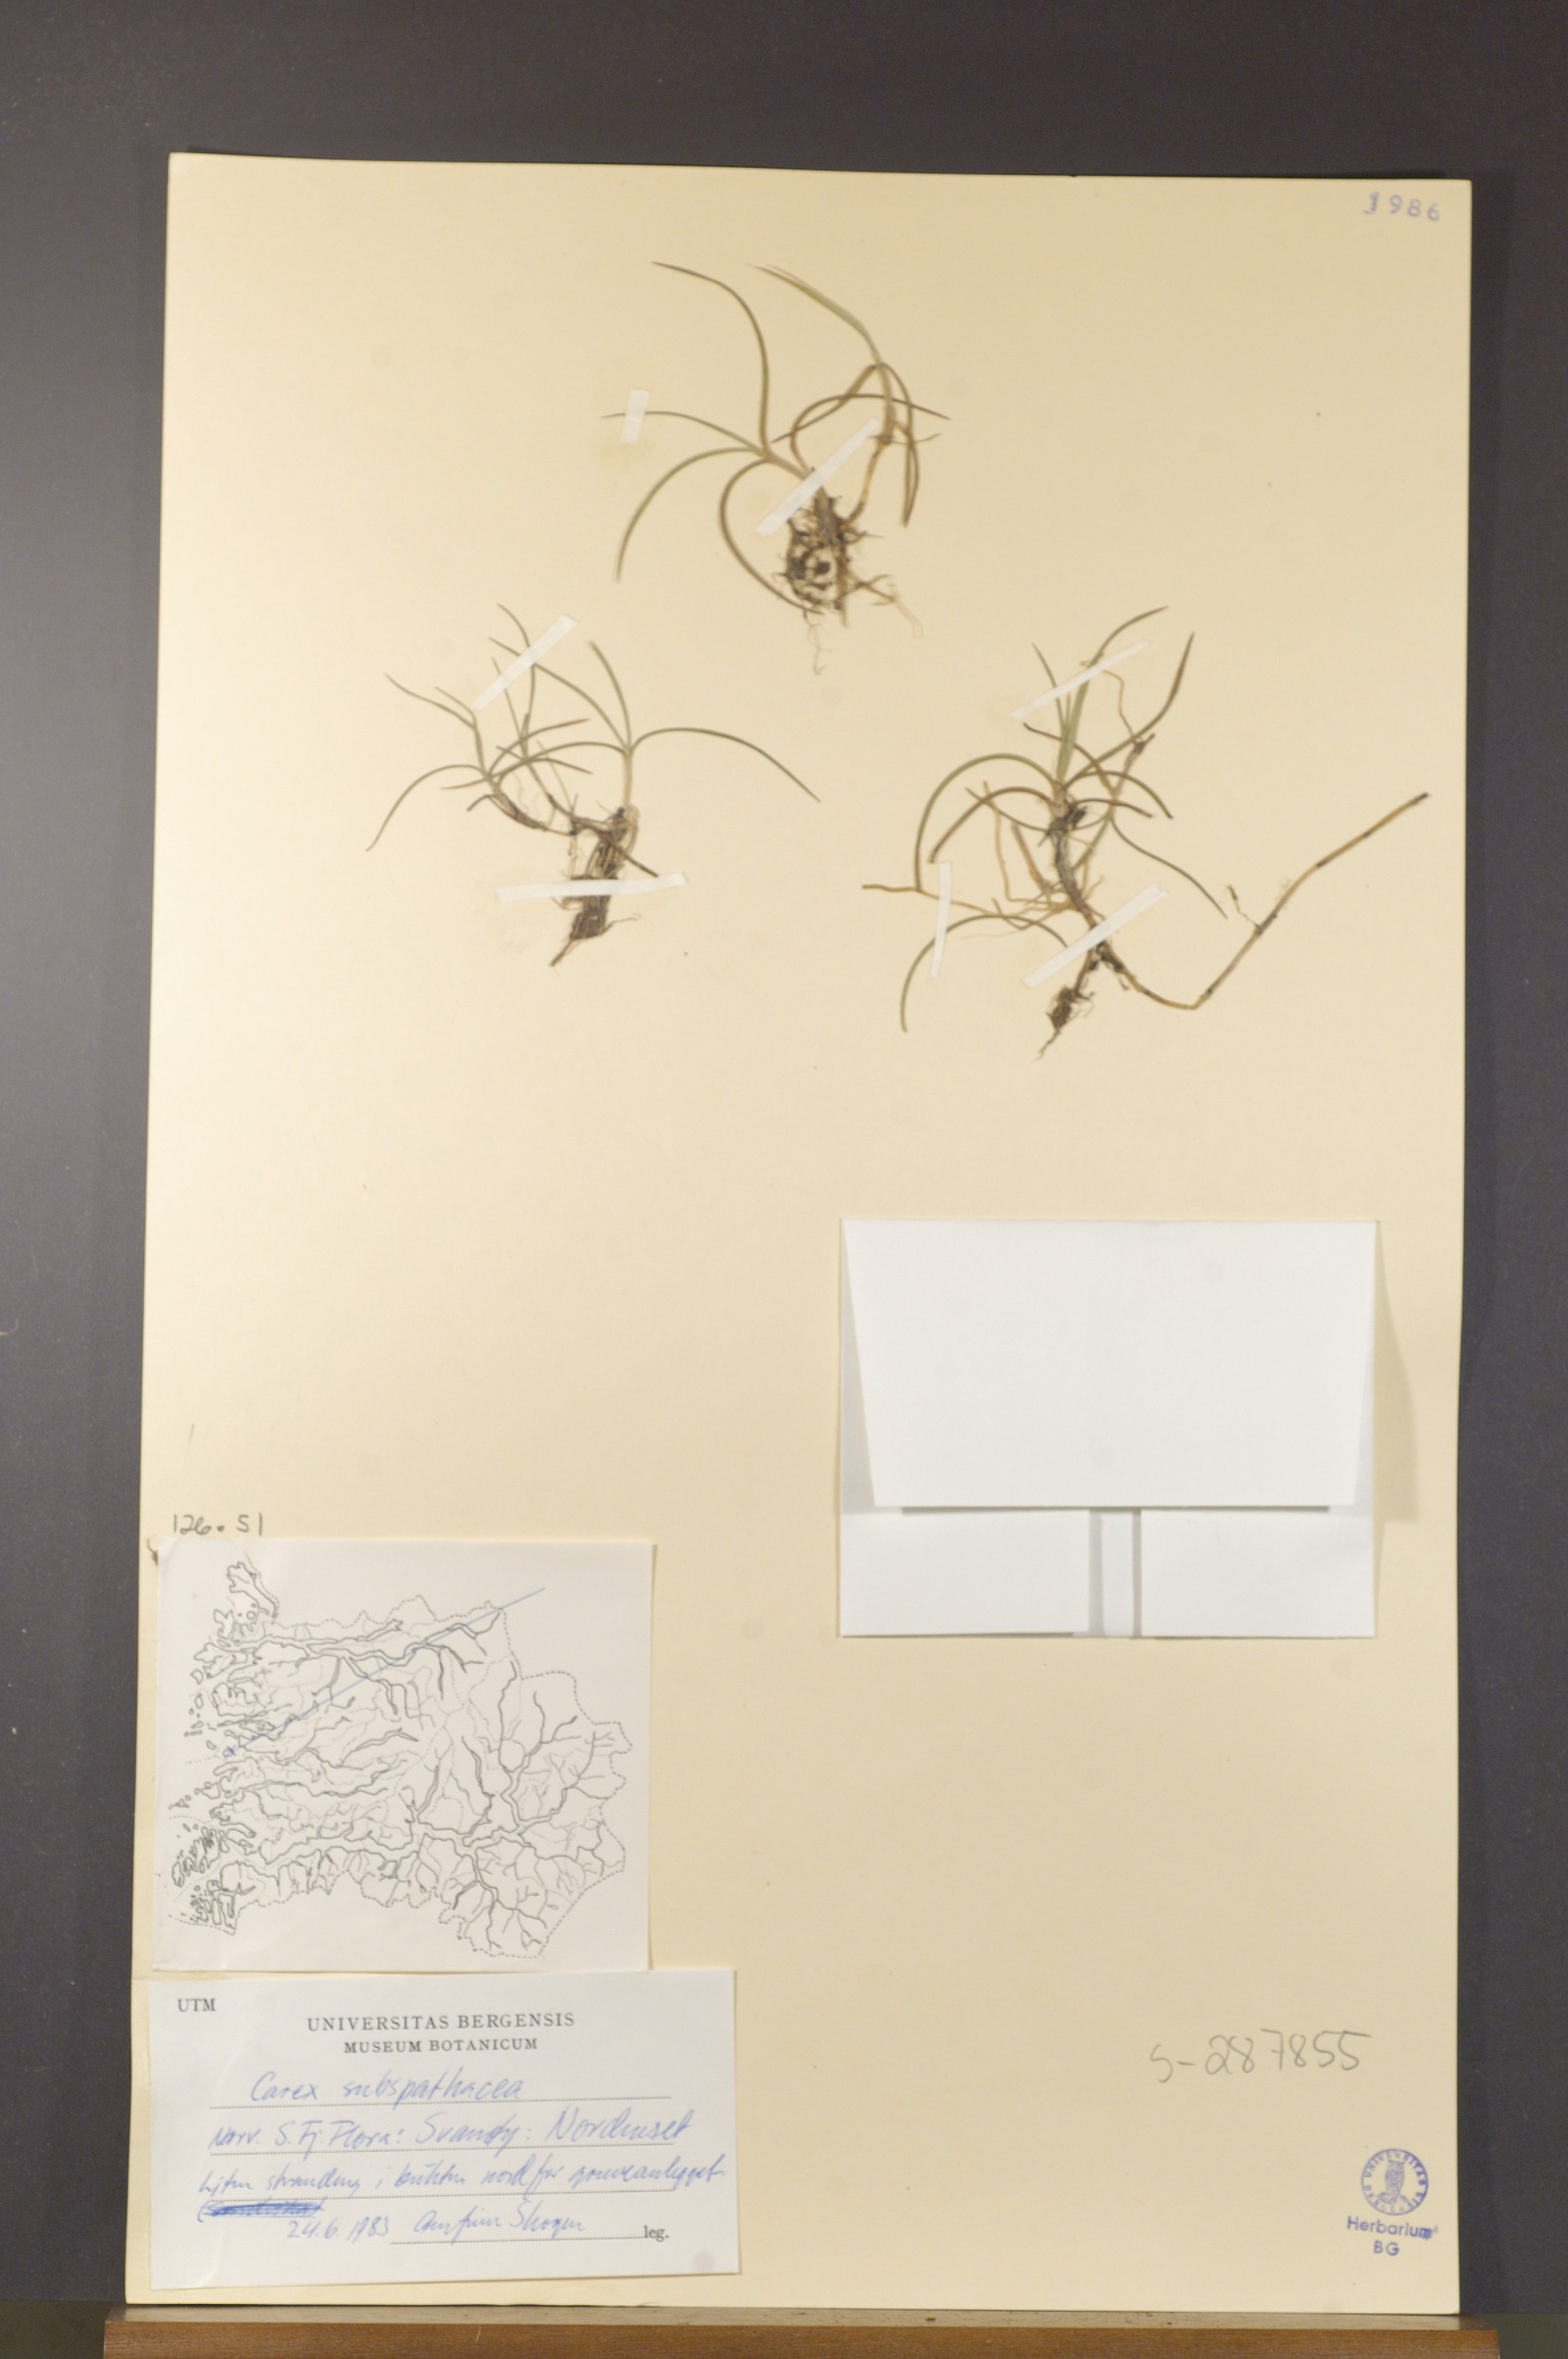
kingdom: Plantae
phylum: Tracheophyta
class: Liliopsida
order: Poales
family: Cyperaceae
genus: Carex
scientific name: Carex subspathacea
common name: Hoppner's sedge
